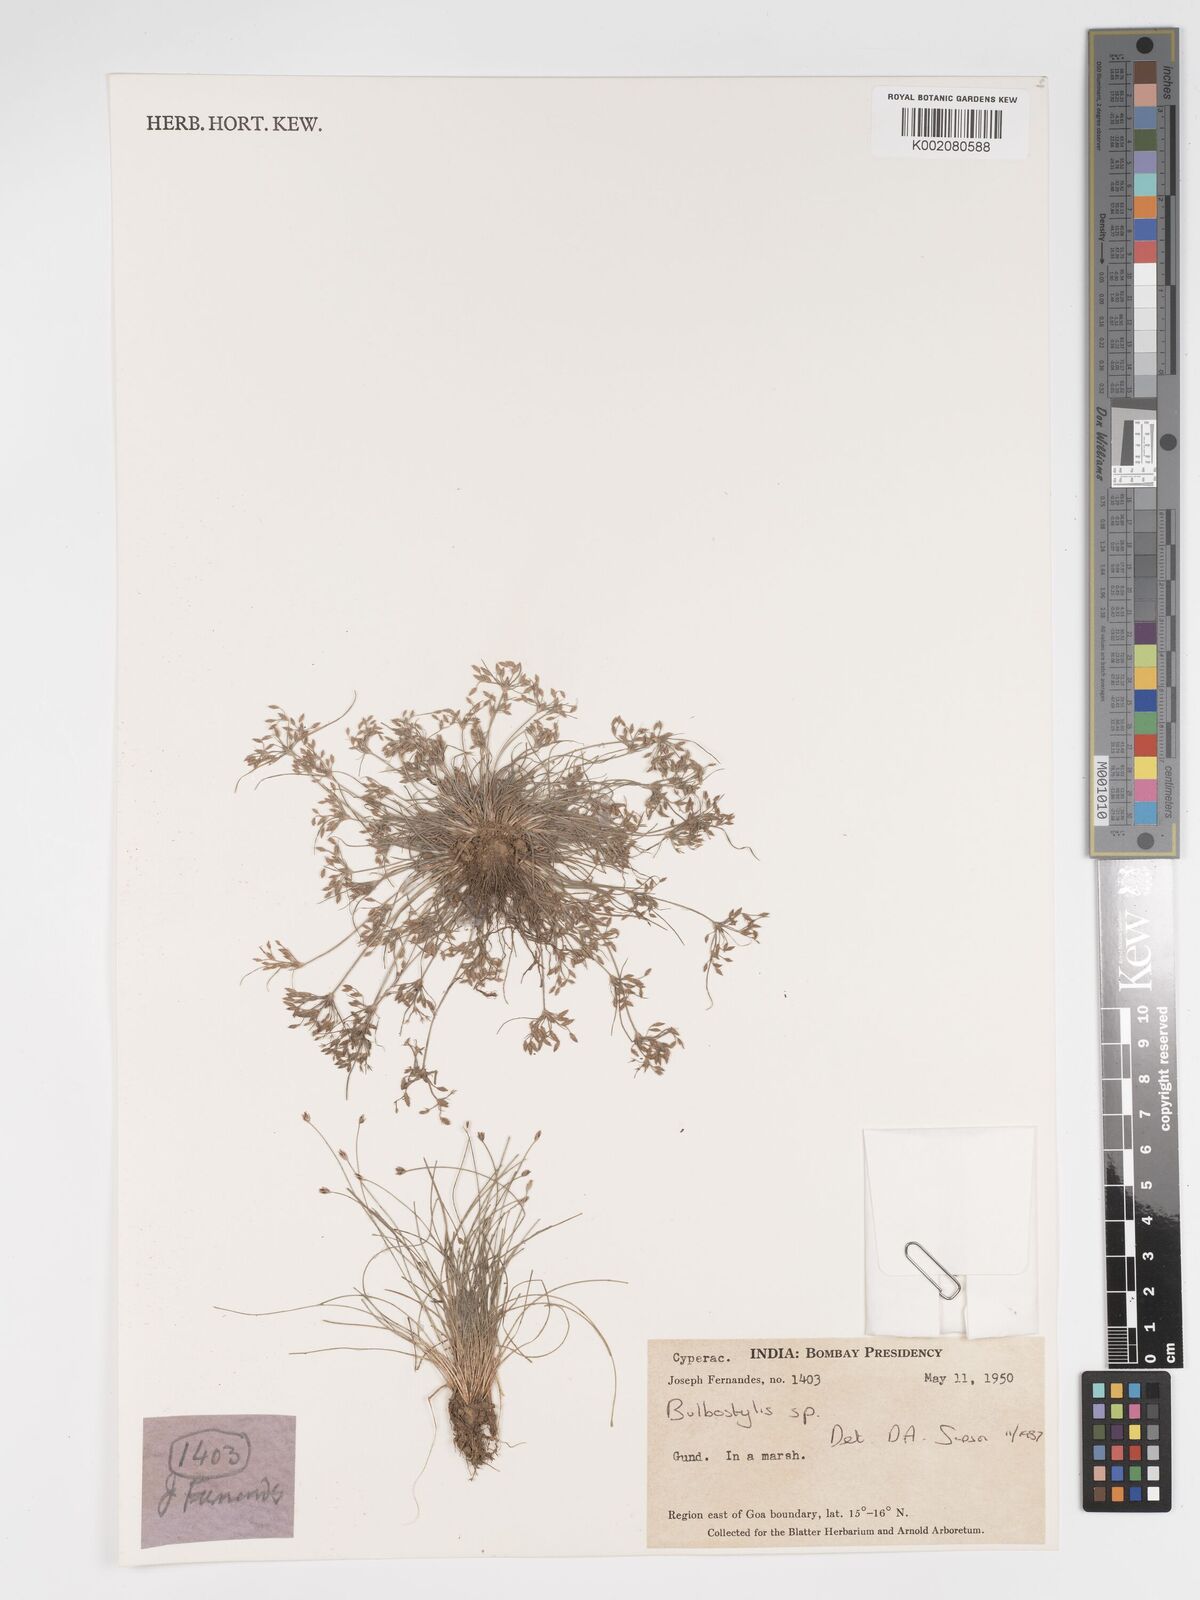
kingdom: Plantae
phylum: Tracheophyta
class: Liliopsida
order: Poales
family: Cyperaceae
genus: Bulbostylis
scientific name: Bulbostylis
